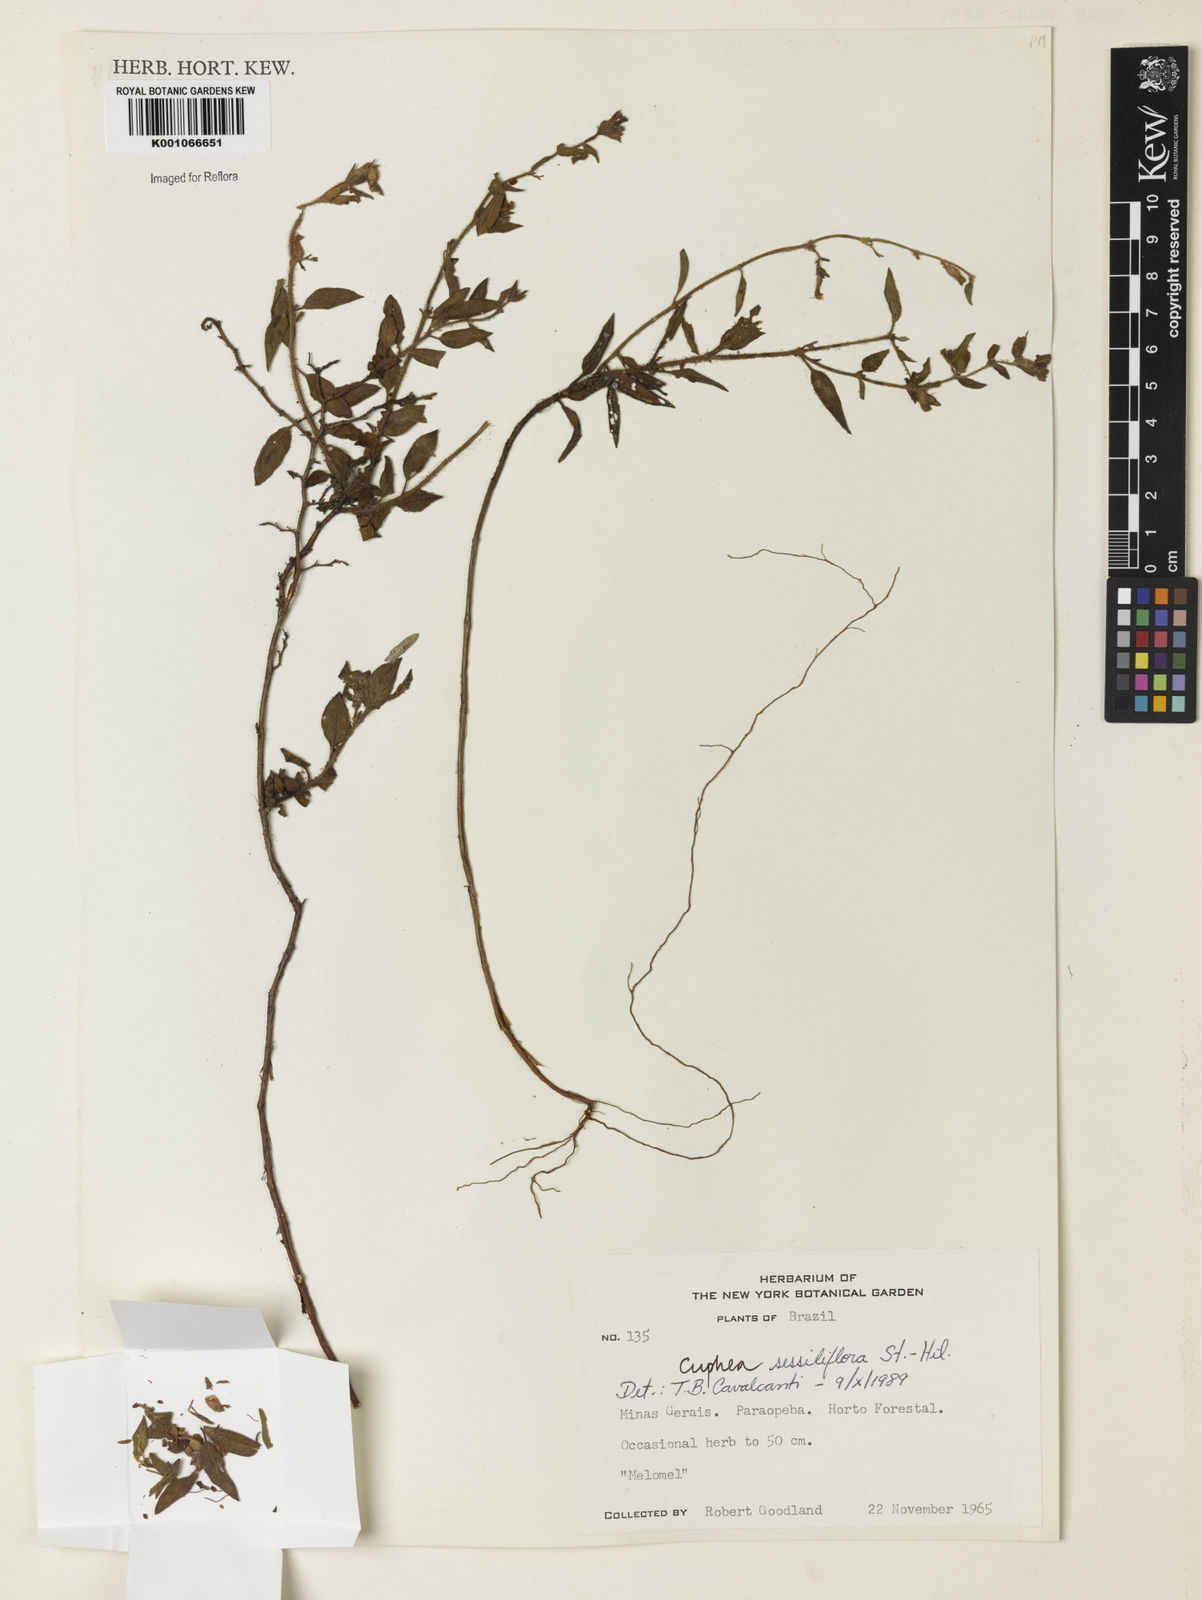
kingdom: Plantae
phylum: Tracheophyta
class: Magnoliopsida
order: Myrtales
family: Lythraceae
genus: Cuphea
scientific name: Cuphea sessiliflora
